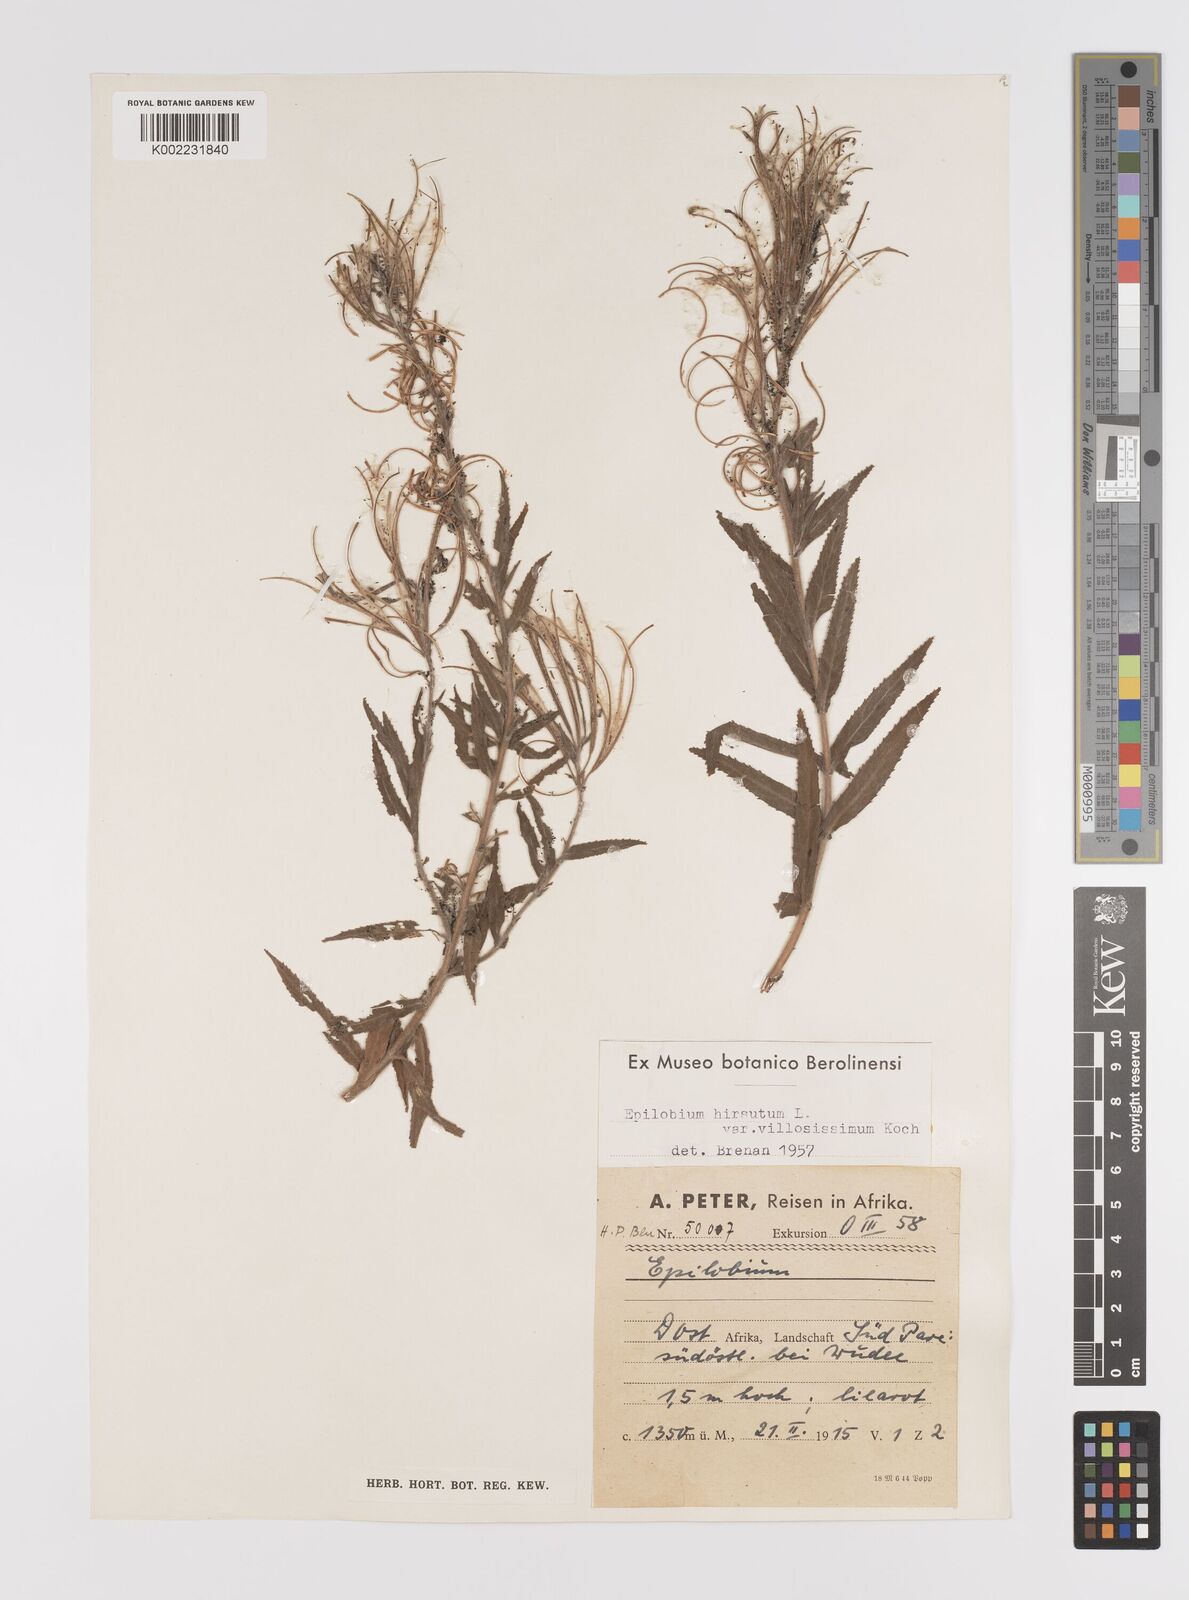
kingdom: Plantae
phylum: Tracheophyta
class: Magnoliopsida
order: Myrtales
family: Onagraceae
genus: Epilobium
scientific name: Epilobium hirsutum
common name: Great willowherb
